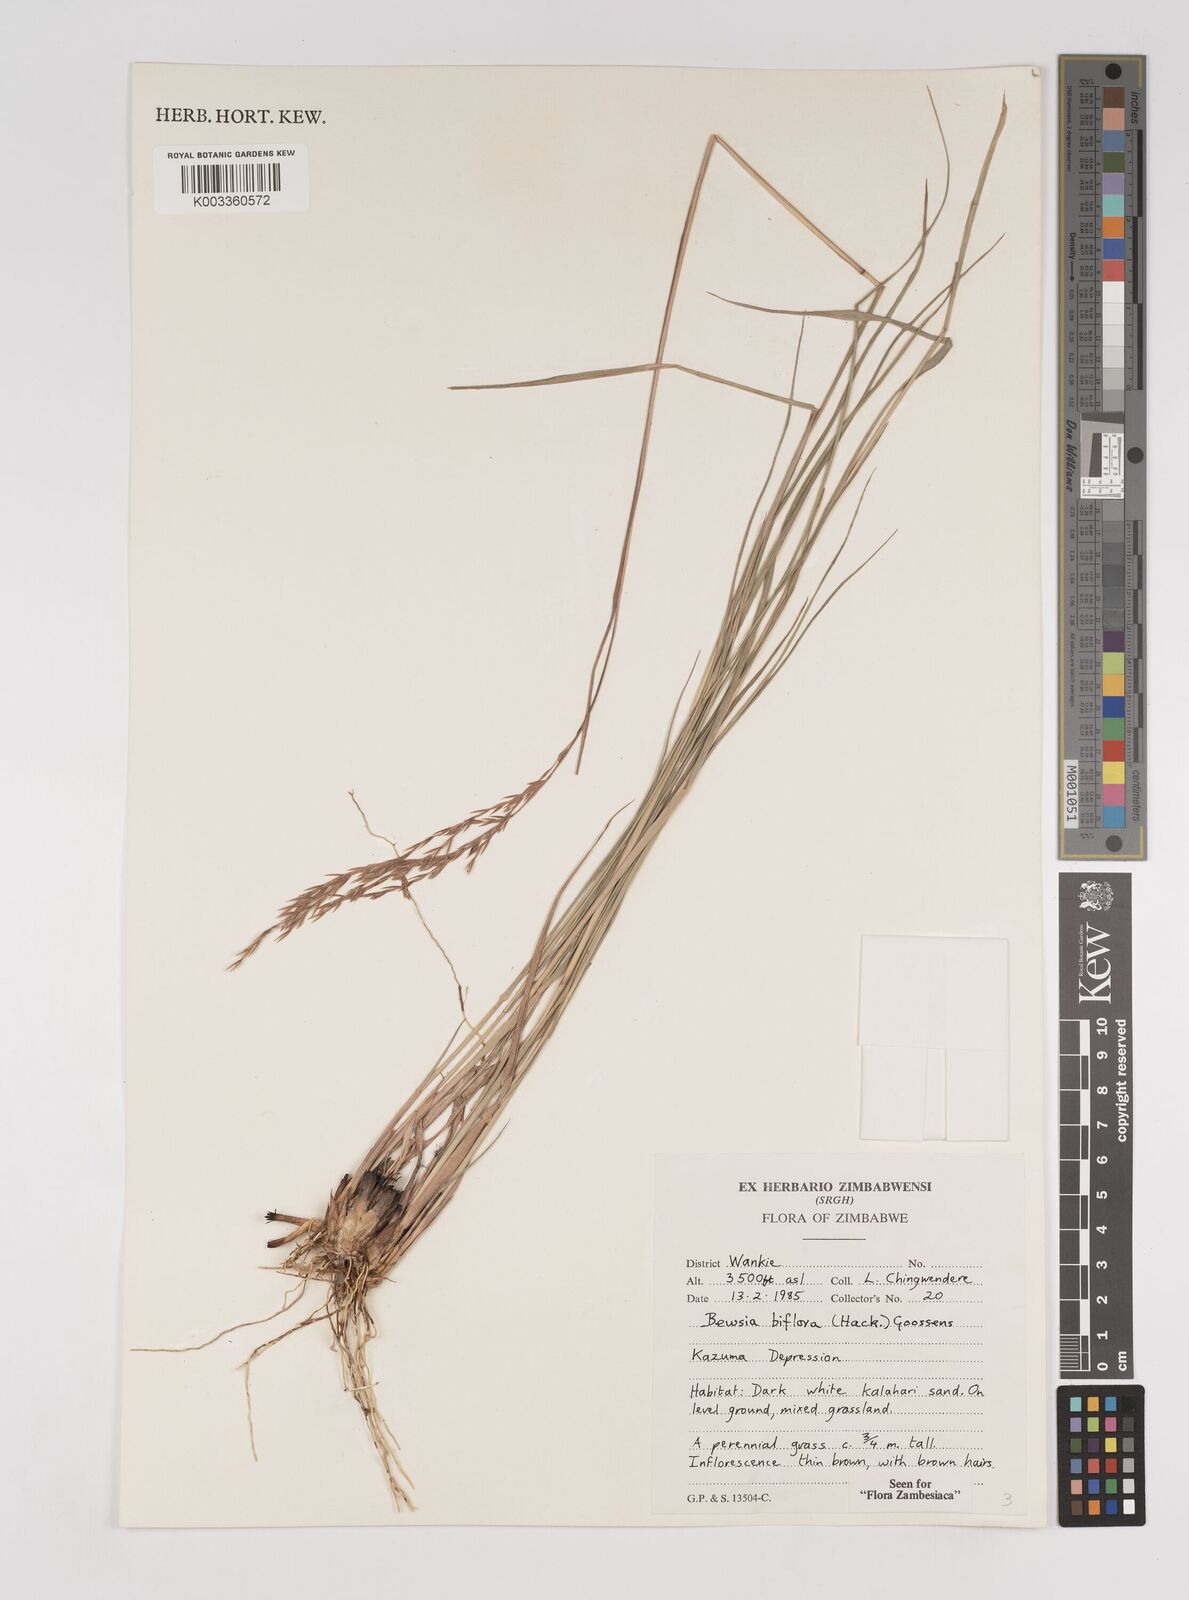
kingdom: Plantae
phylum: Tracheophyta
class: Liliopsida
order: Poales
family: Poaceae
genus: Bewsia
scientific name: Bewsia biflora
